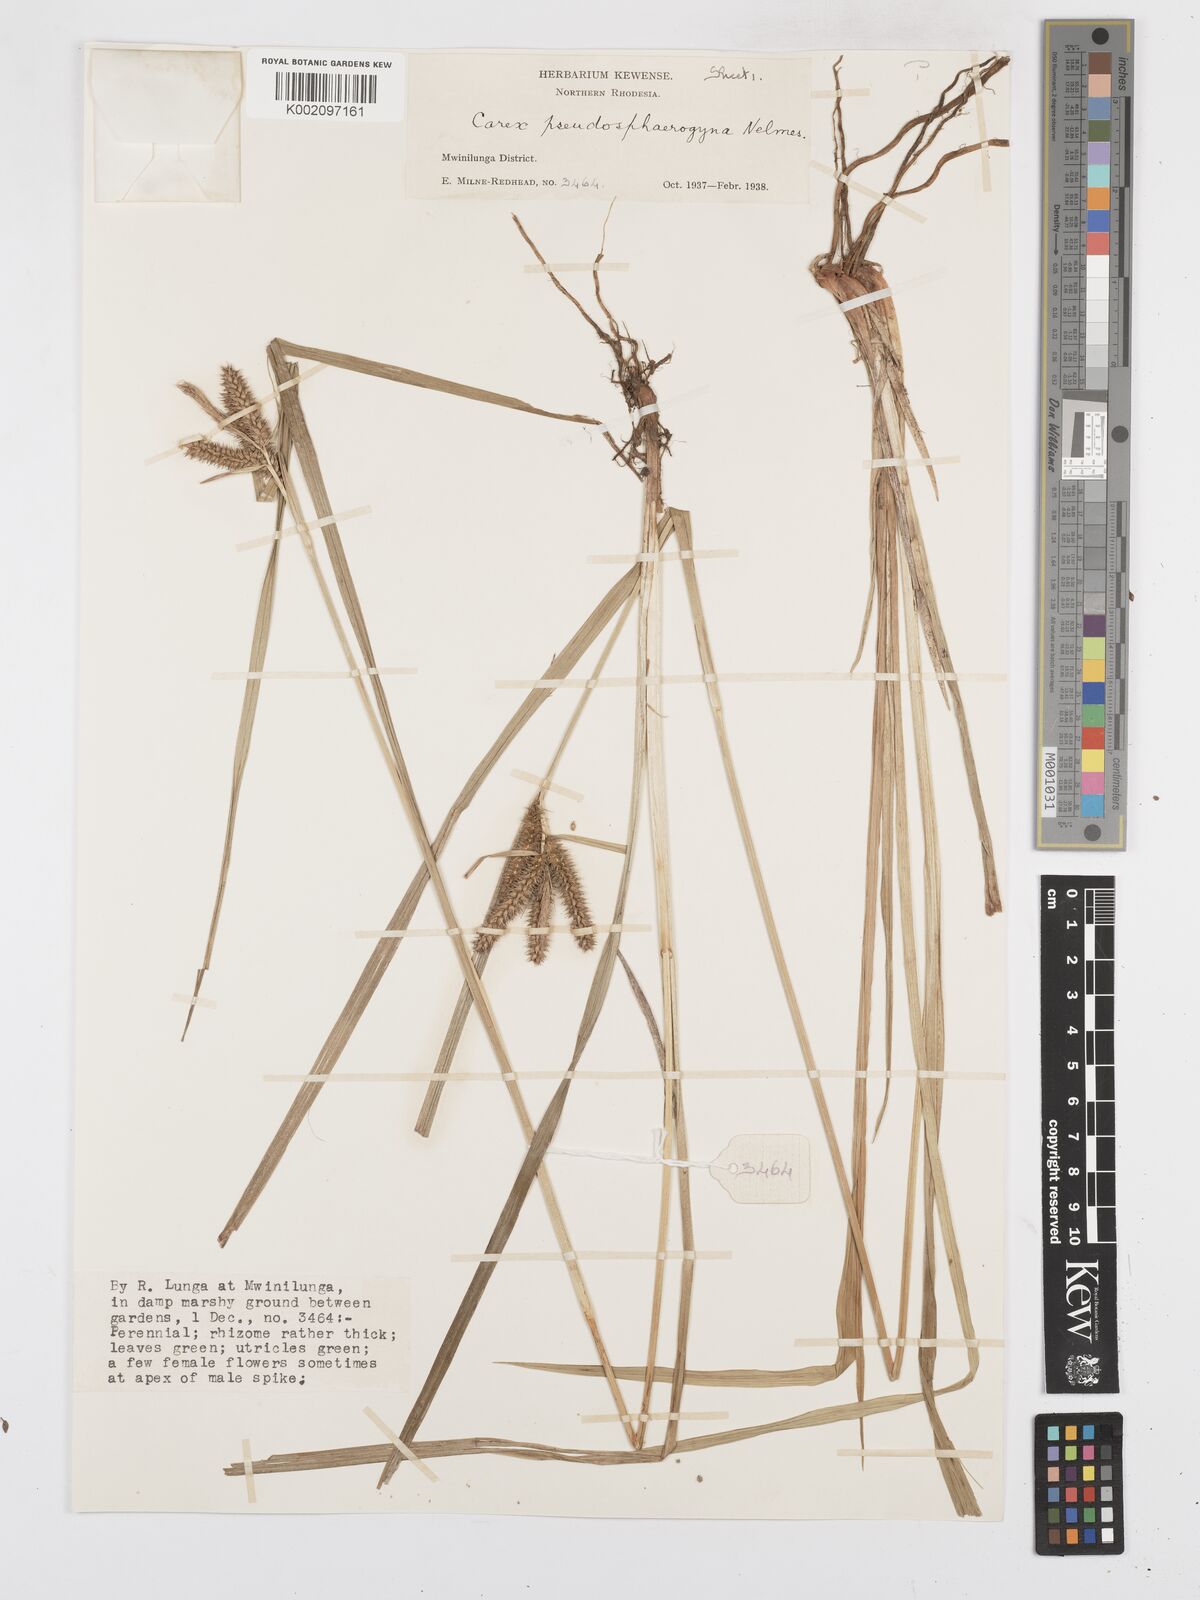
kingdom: Plantae
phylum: Tracheophyta
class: Liliopsida
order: Poales
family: Cyperaceae
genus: Carex
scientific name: Carex congolensis
